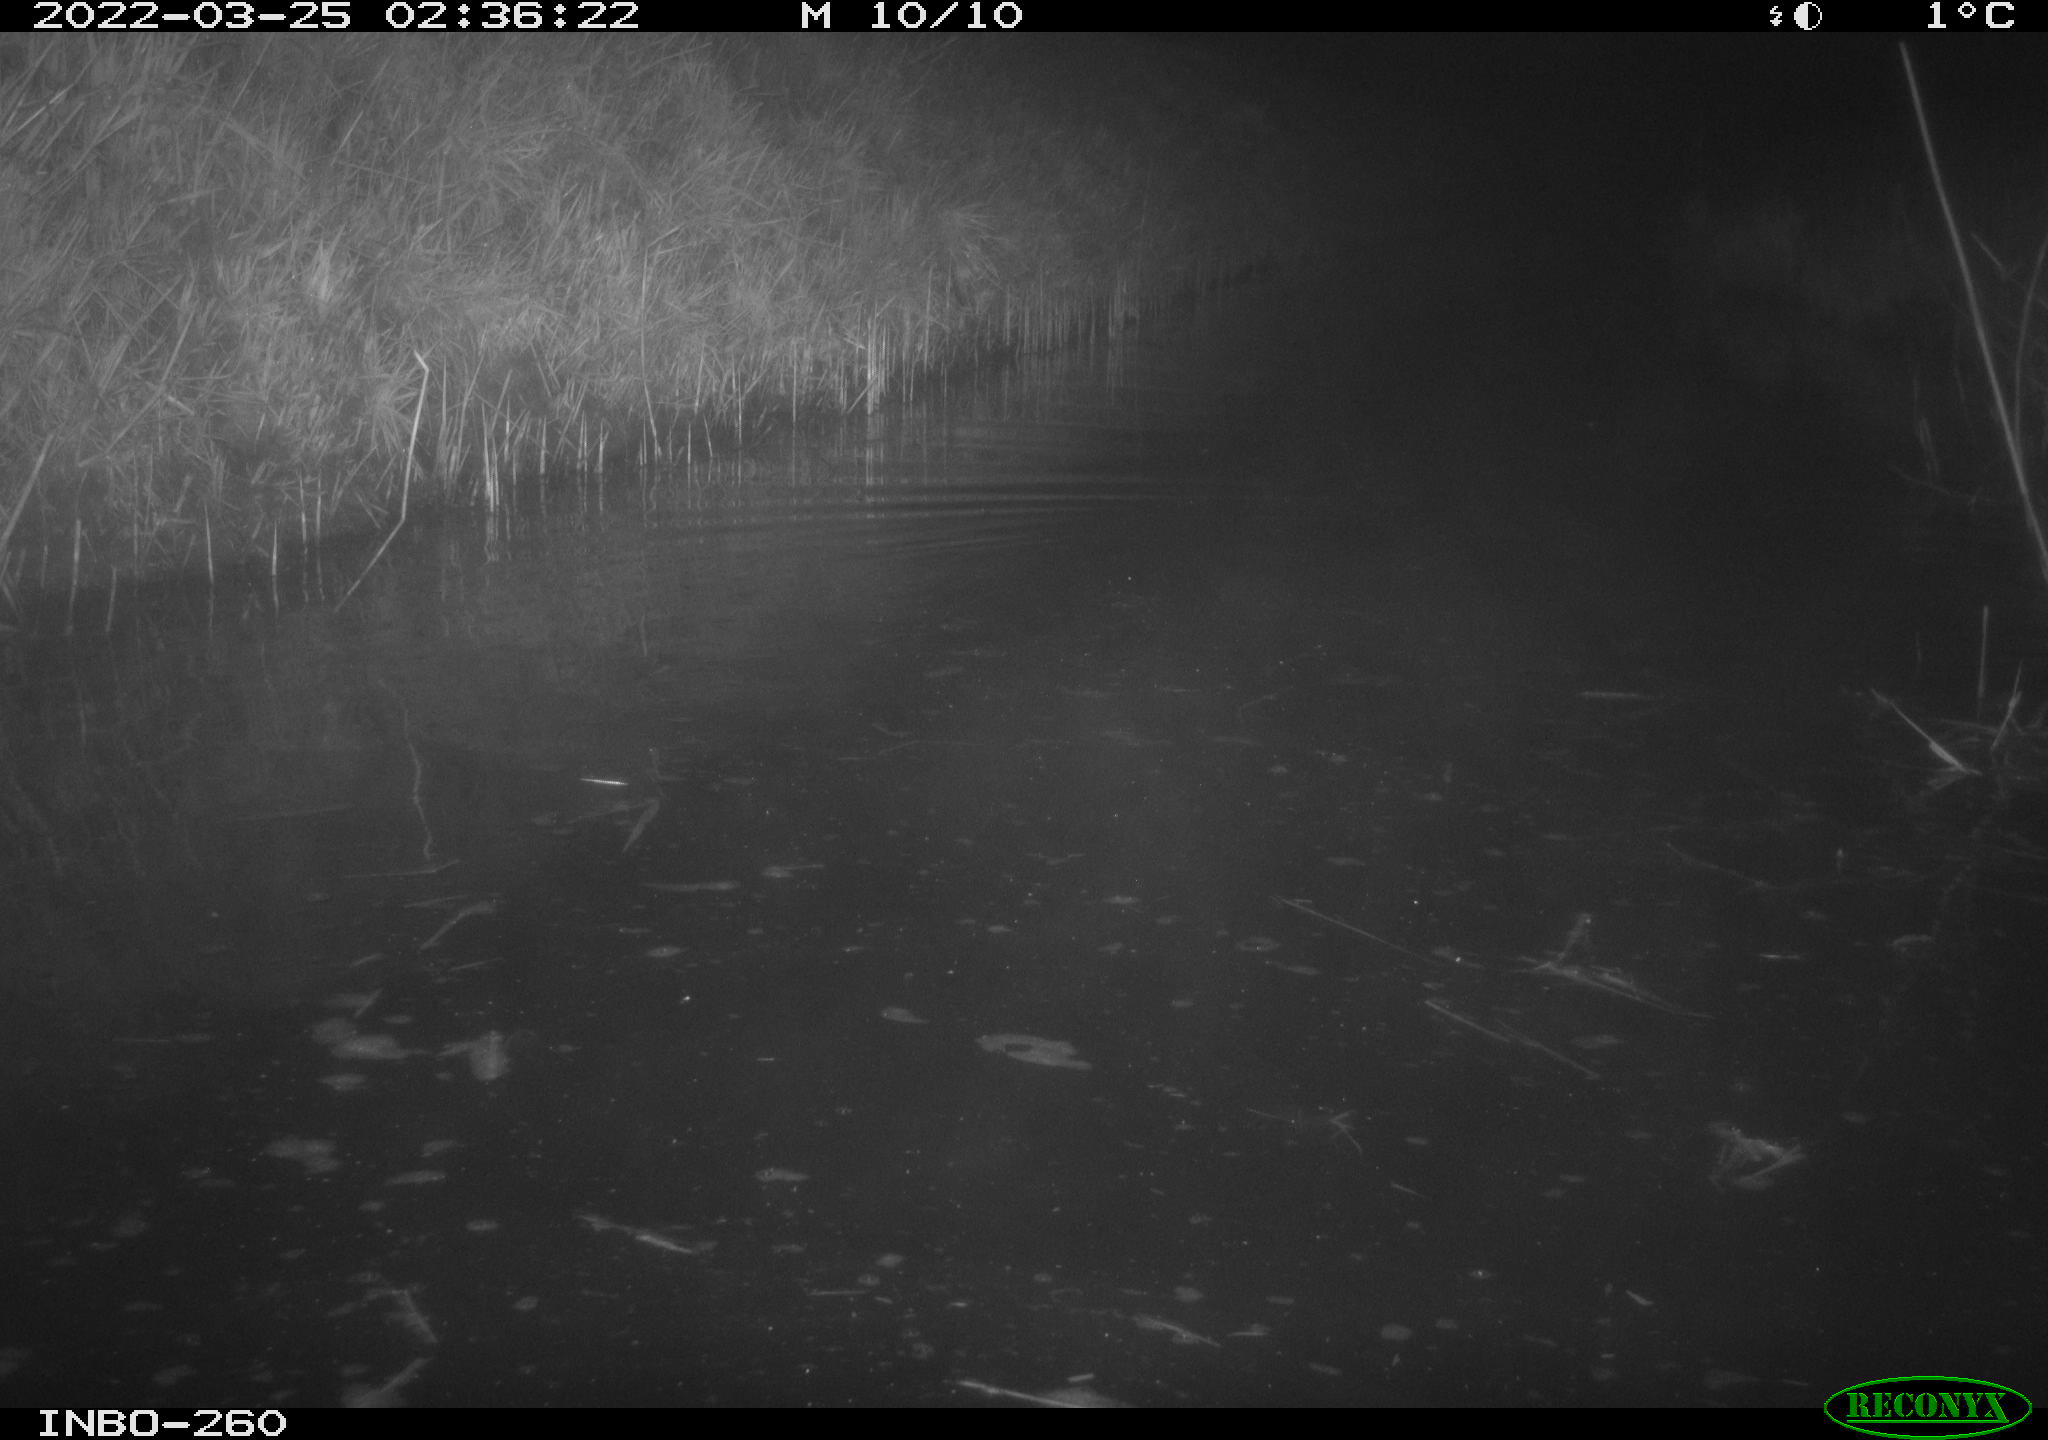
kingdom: Animalia
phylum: Chordata
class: Mammalia
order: Rodentia
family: Cricetidae
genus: Ondatra
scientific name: Ondatra zibethicus
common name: Muskrat
